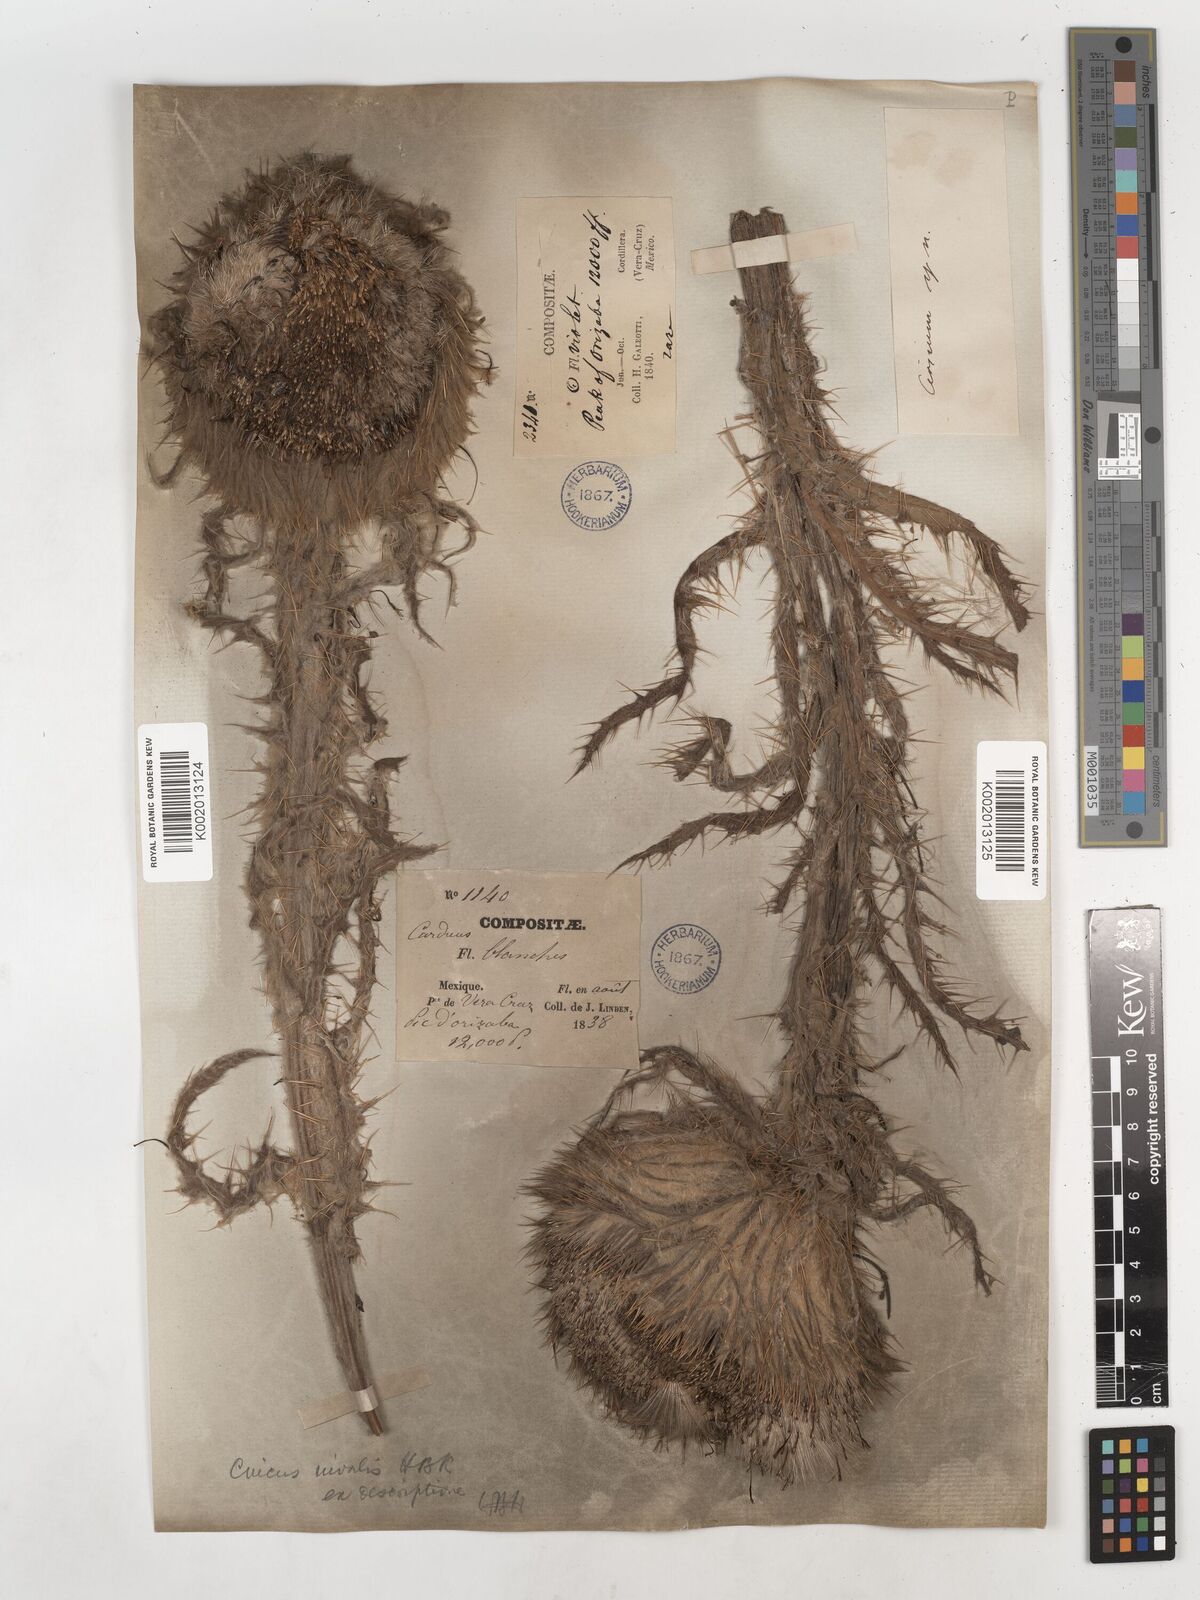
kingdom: Plantae
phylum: Tracheophyta
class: Magnoliopsida
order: Asterales
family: Asteraceae
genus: Cirsium
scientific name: Cirsium nivale
